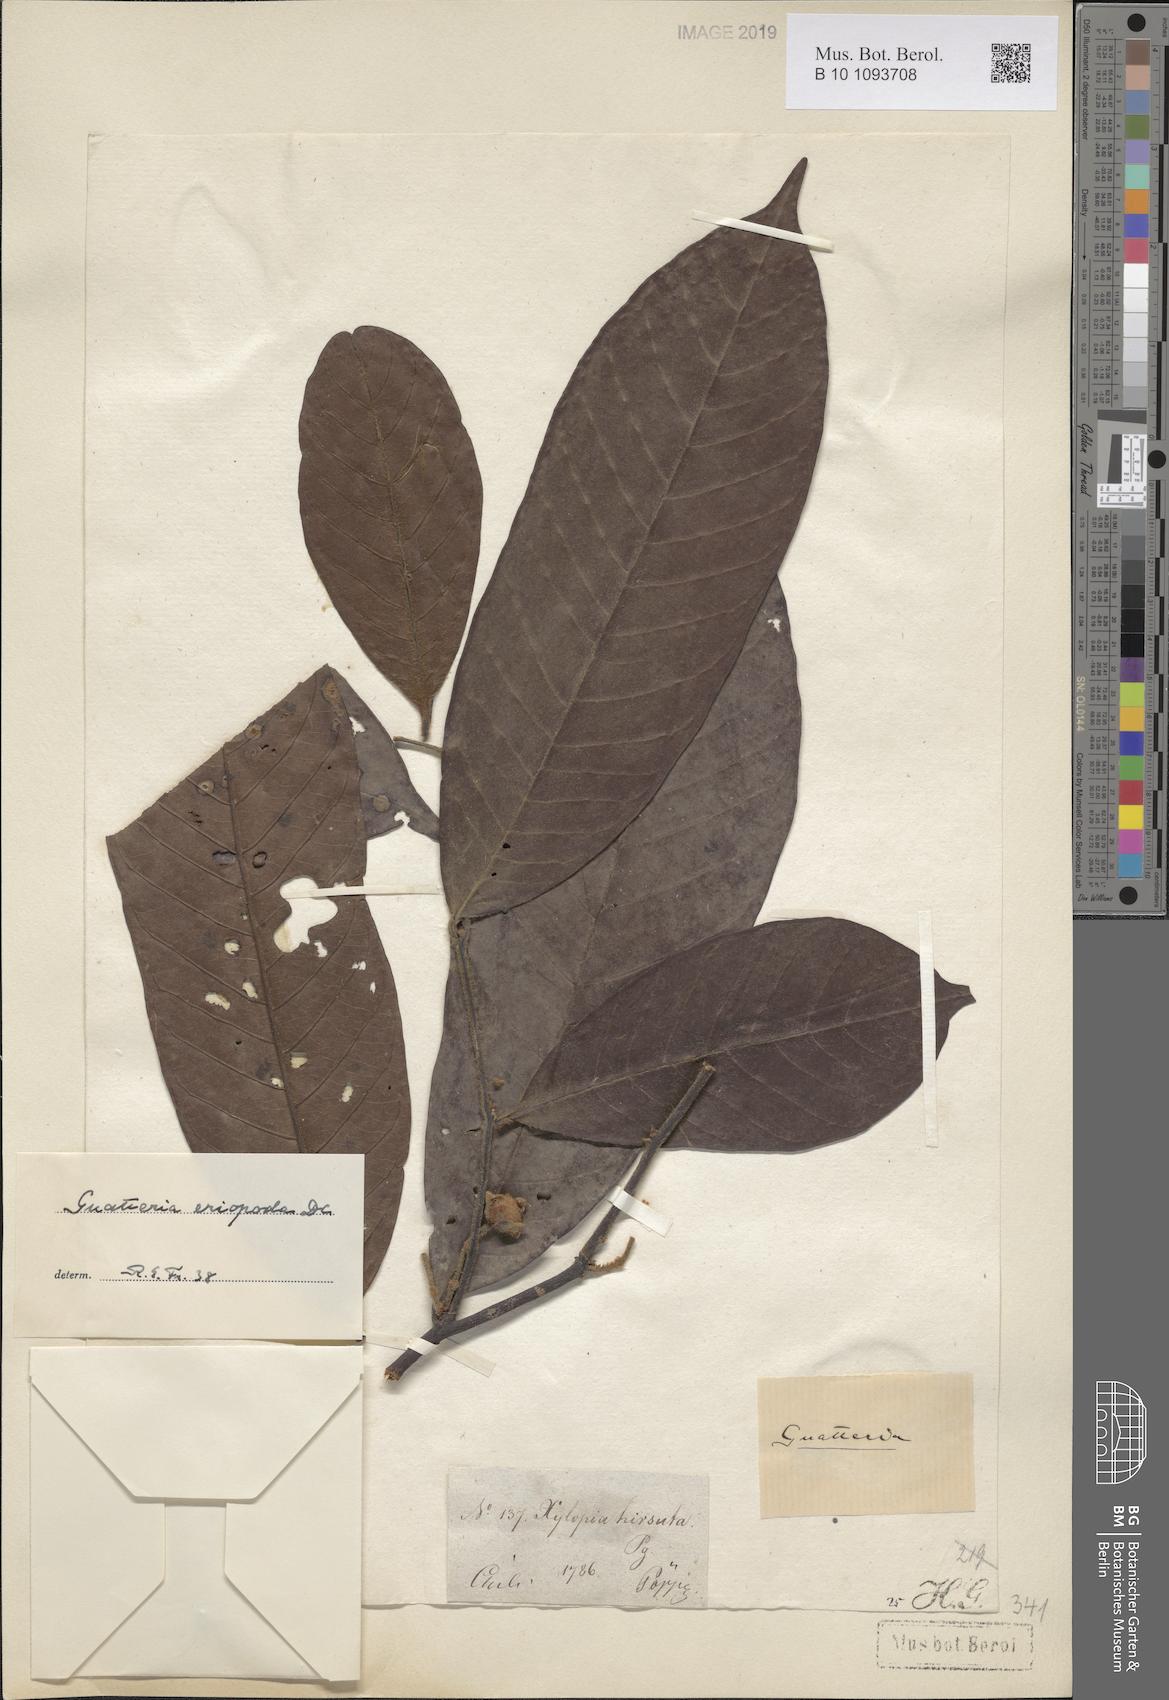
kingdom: Plantae
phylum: Tracheophyta
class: Magnoliopsida
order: Magnoliales
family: Annonaceae
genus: Guatteria
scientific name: Guatteria eriopoda
